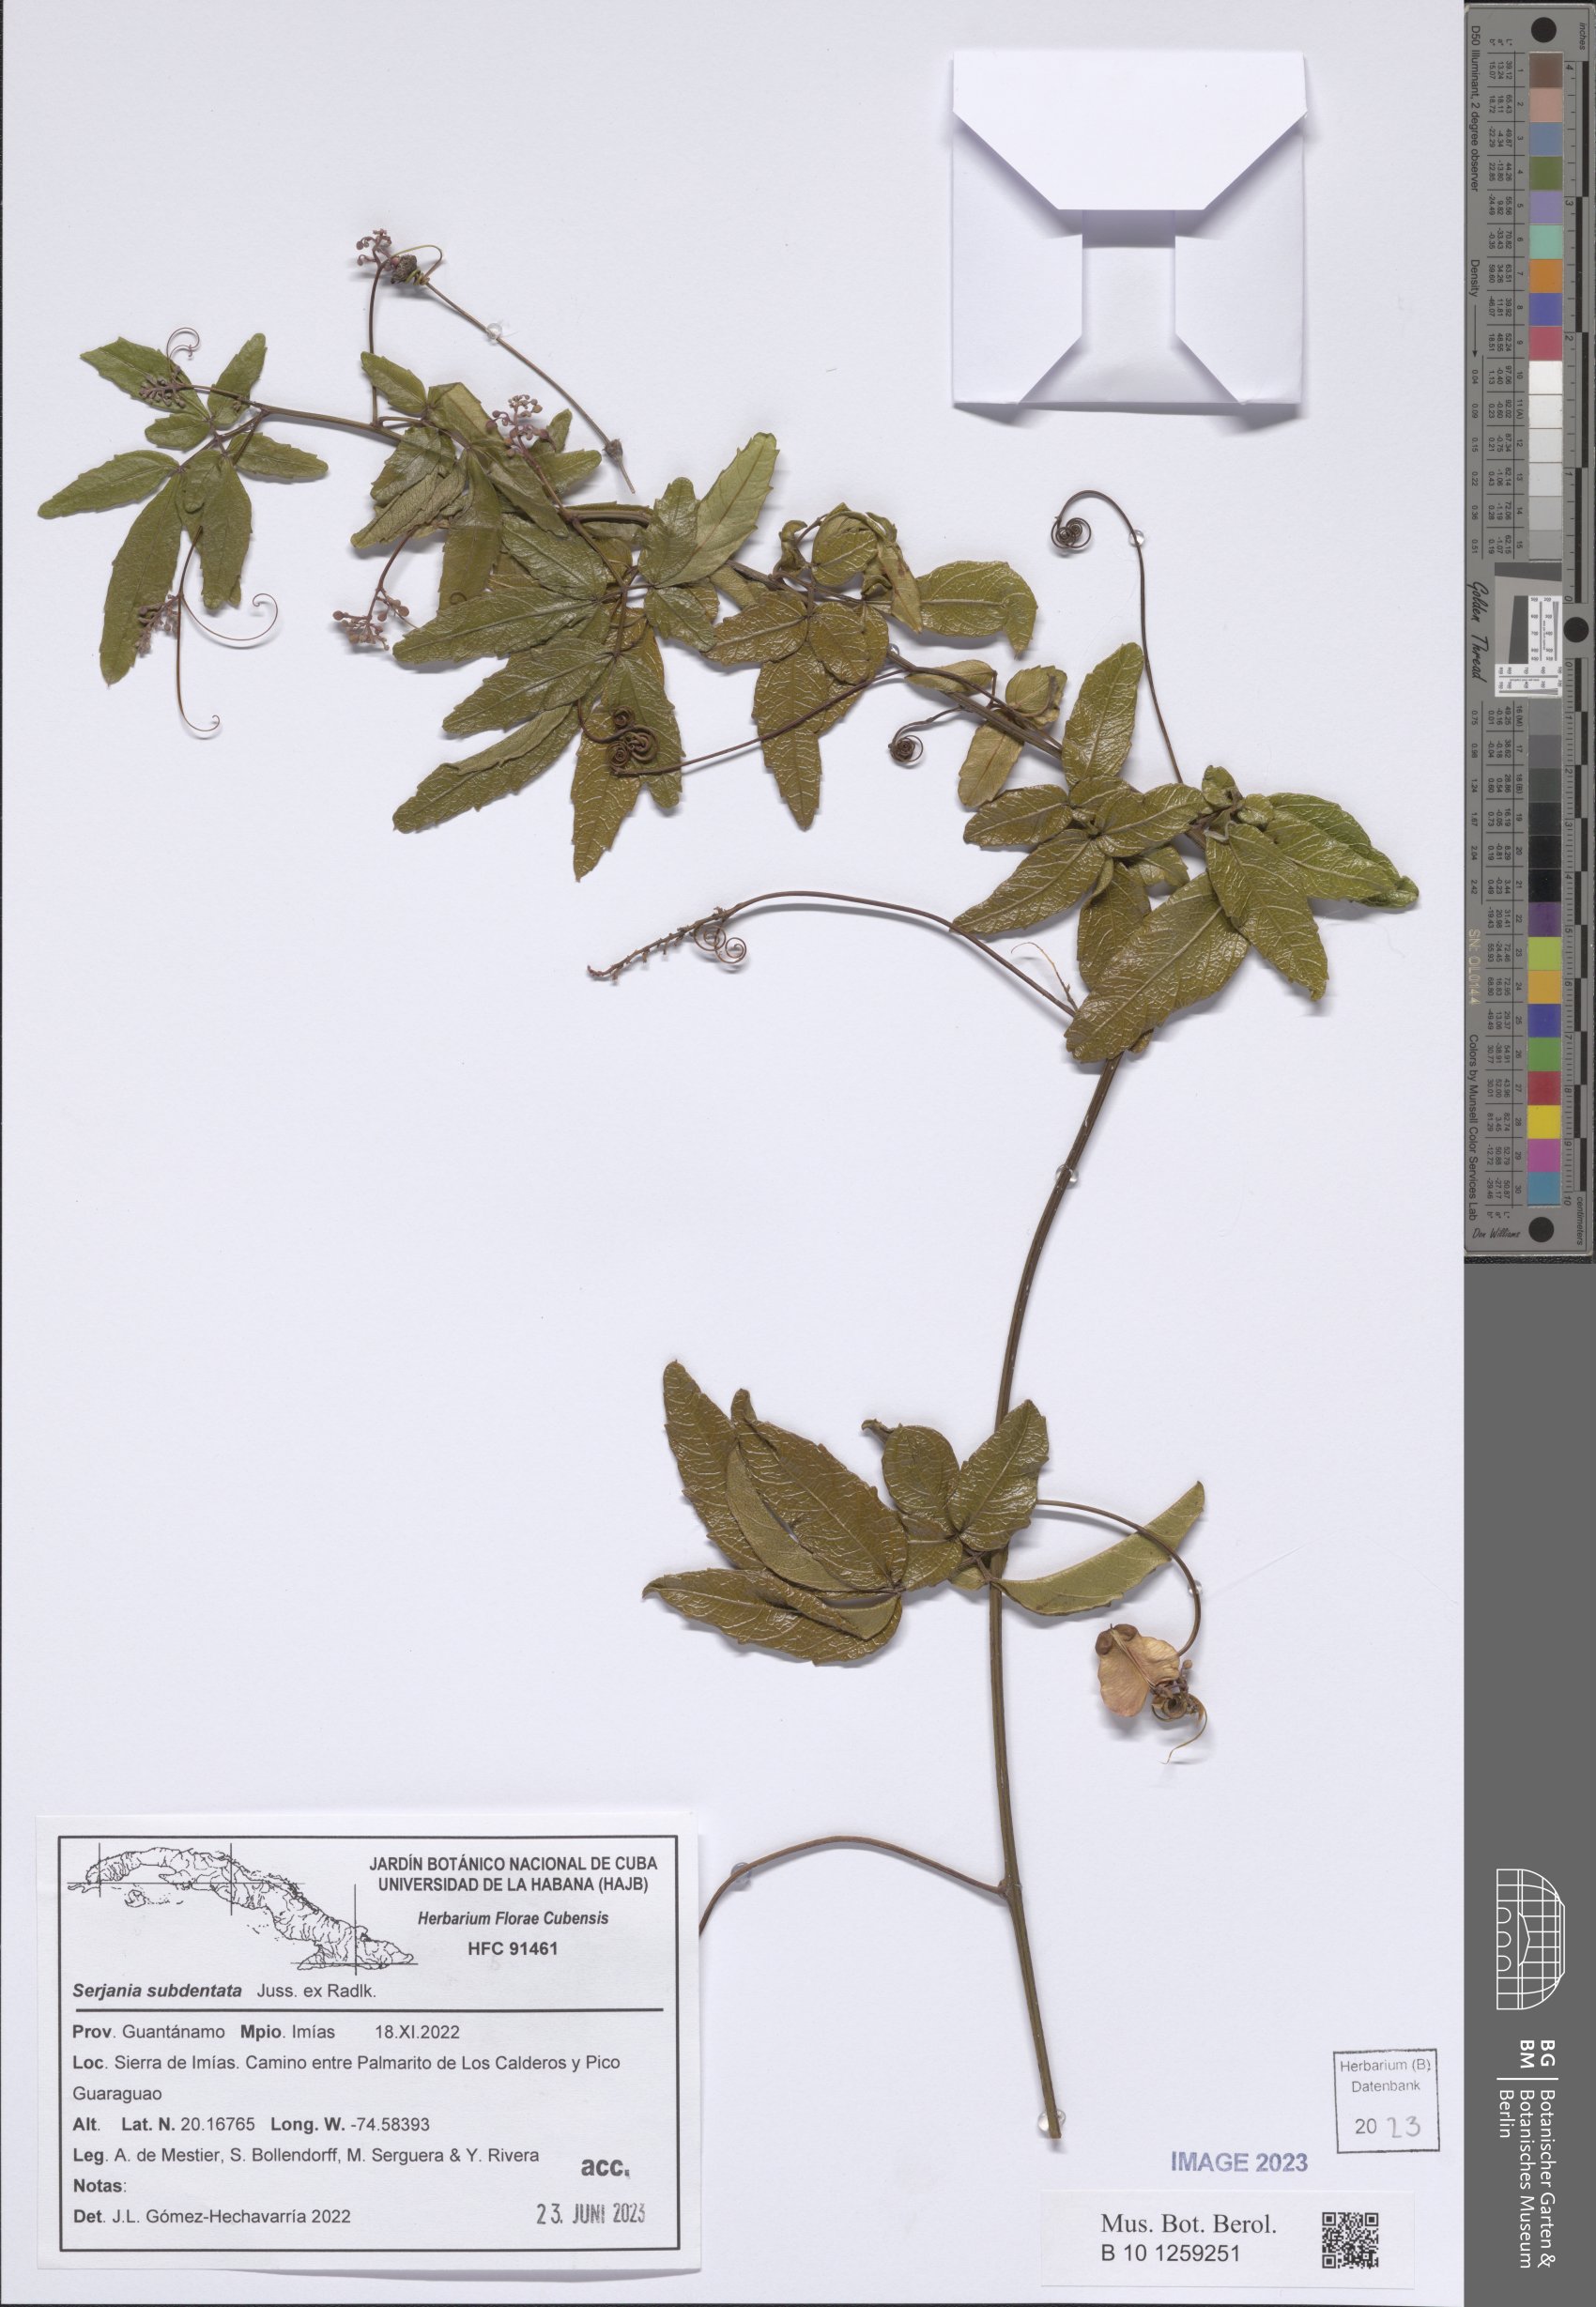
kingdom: Plantae
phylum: Tracheophyta
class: Magnoliopsida
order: Sapindales
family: Sapindaceae
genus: Serjania
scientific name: Serjania subdentata
